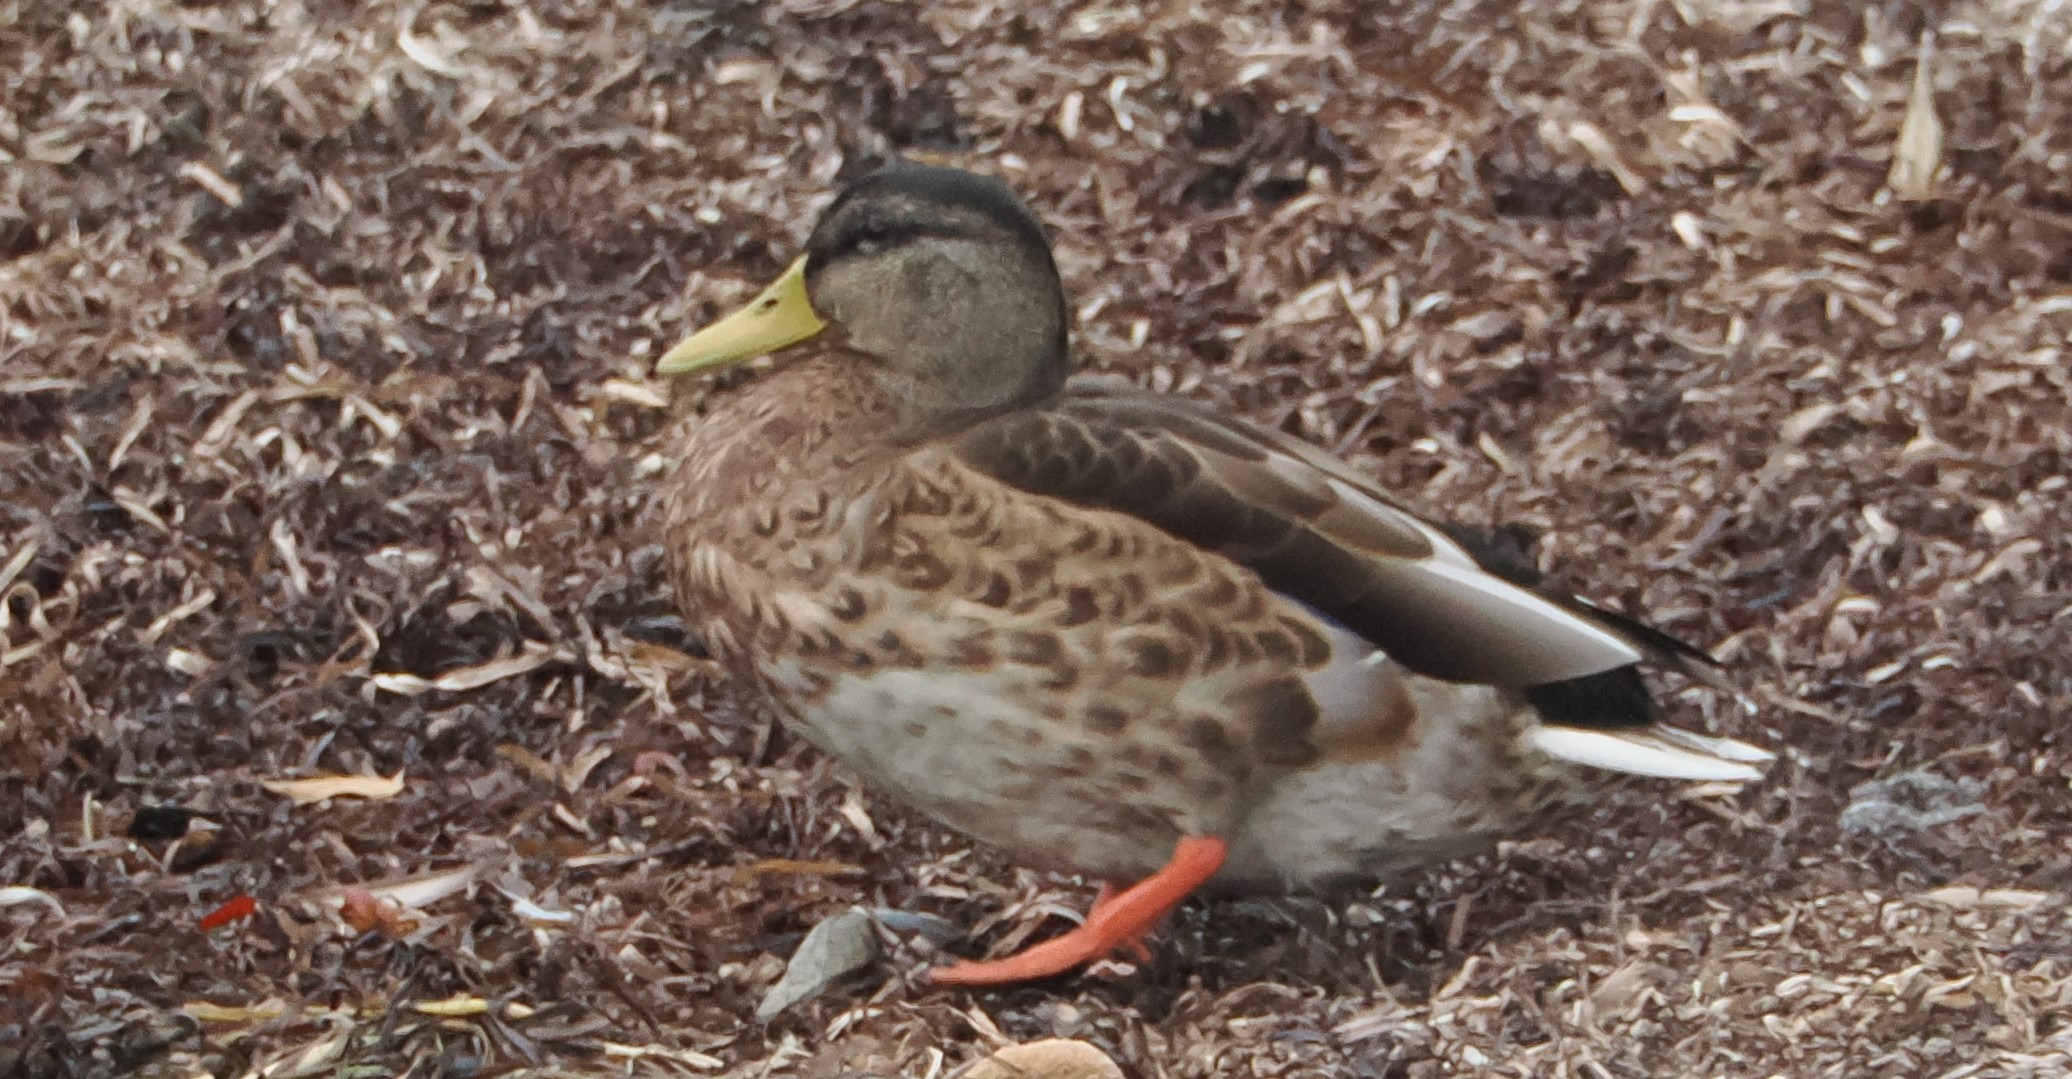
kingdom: Animalia
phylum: Chordata
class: Aves
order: Anseriformes
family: Anatidae
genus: Anas
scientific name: Anas platyrhynchos
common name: Gråand
